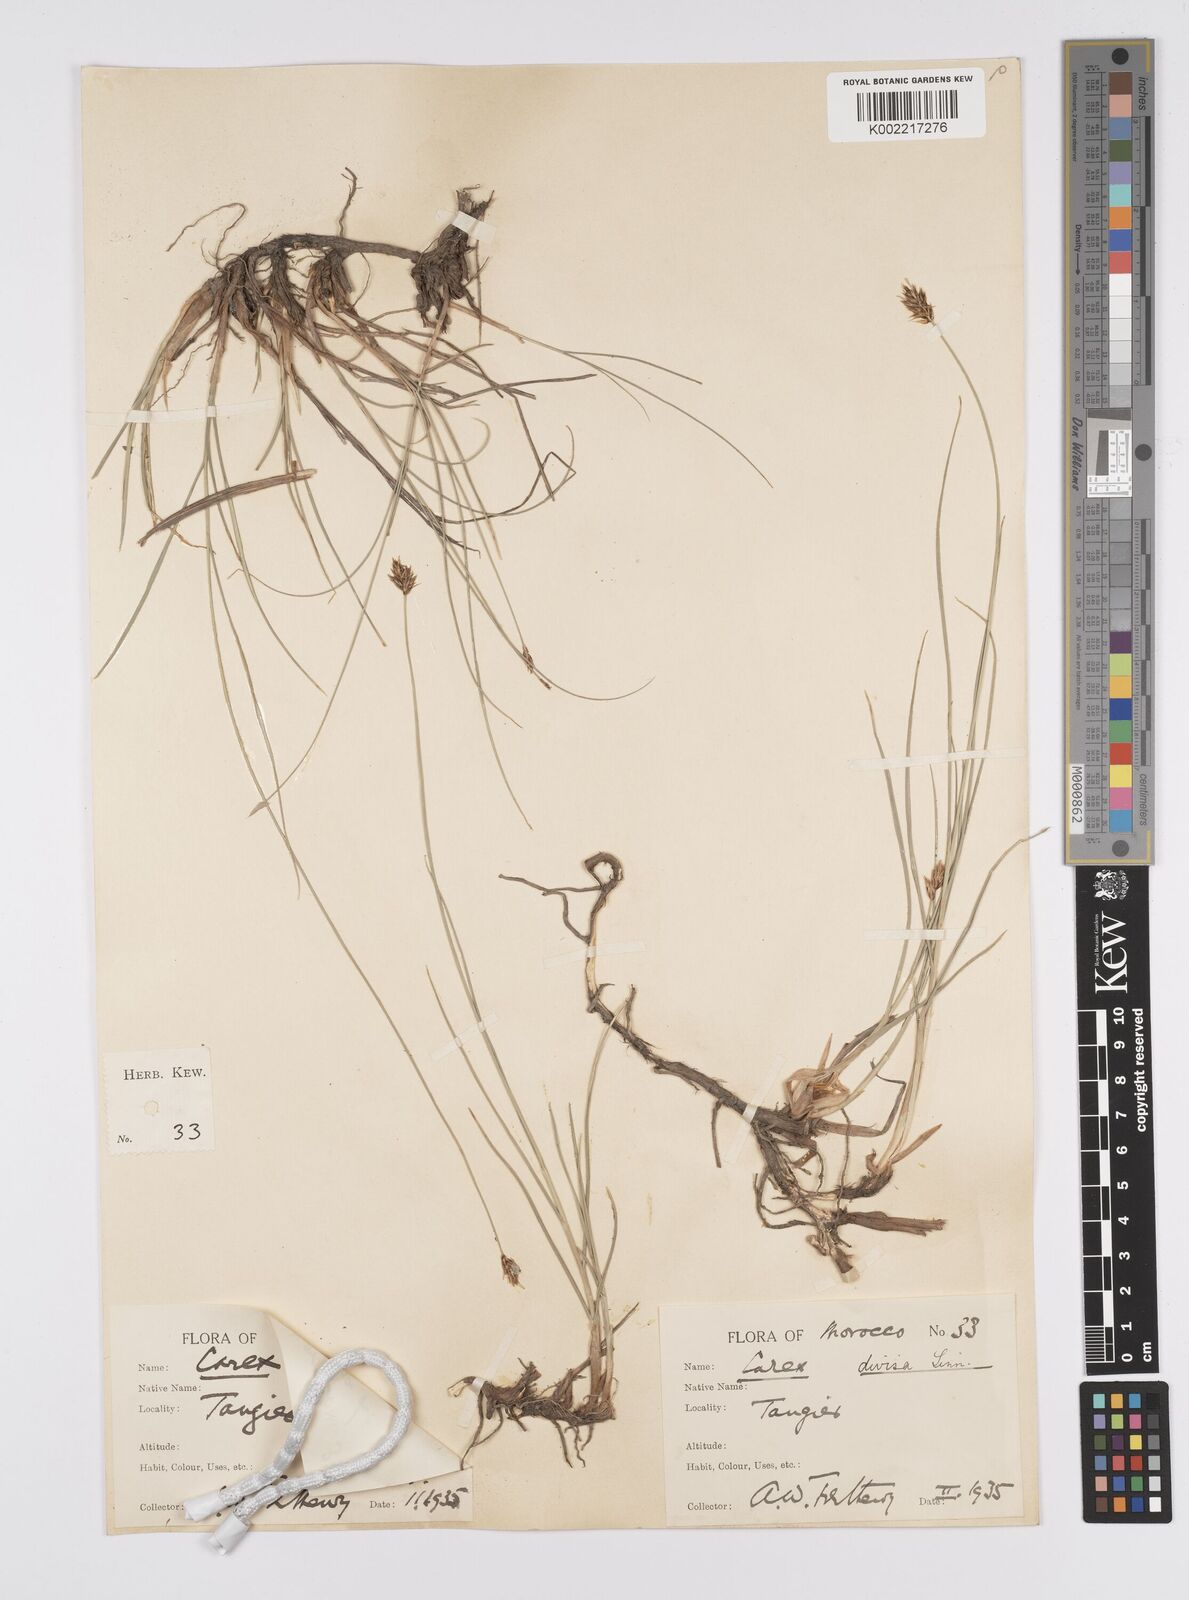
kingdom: Plantae
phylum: Tracheophyta
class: Liliopsida
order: Poales
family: Cyperaceae
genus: Carex
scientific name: Carex divisa
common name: Divided sedge
